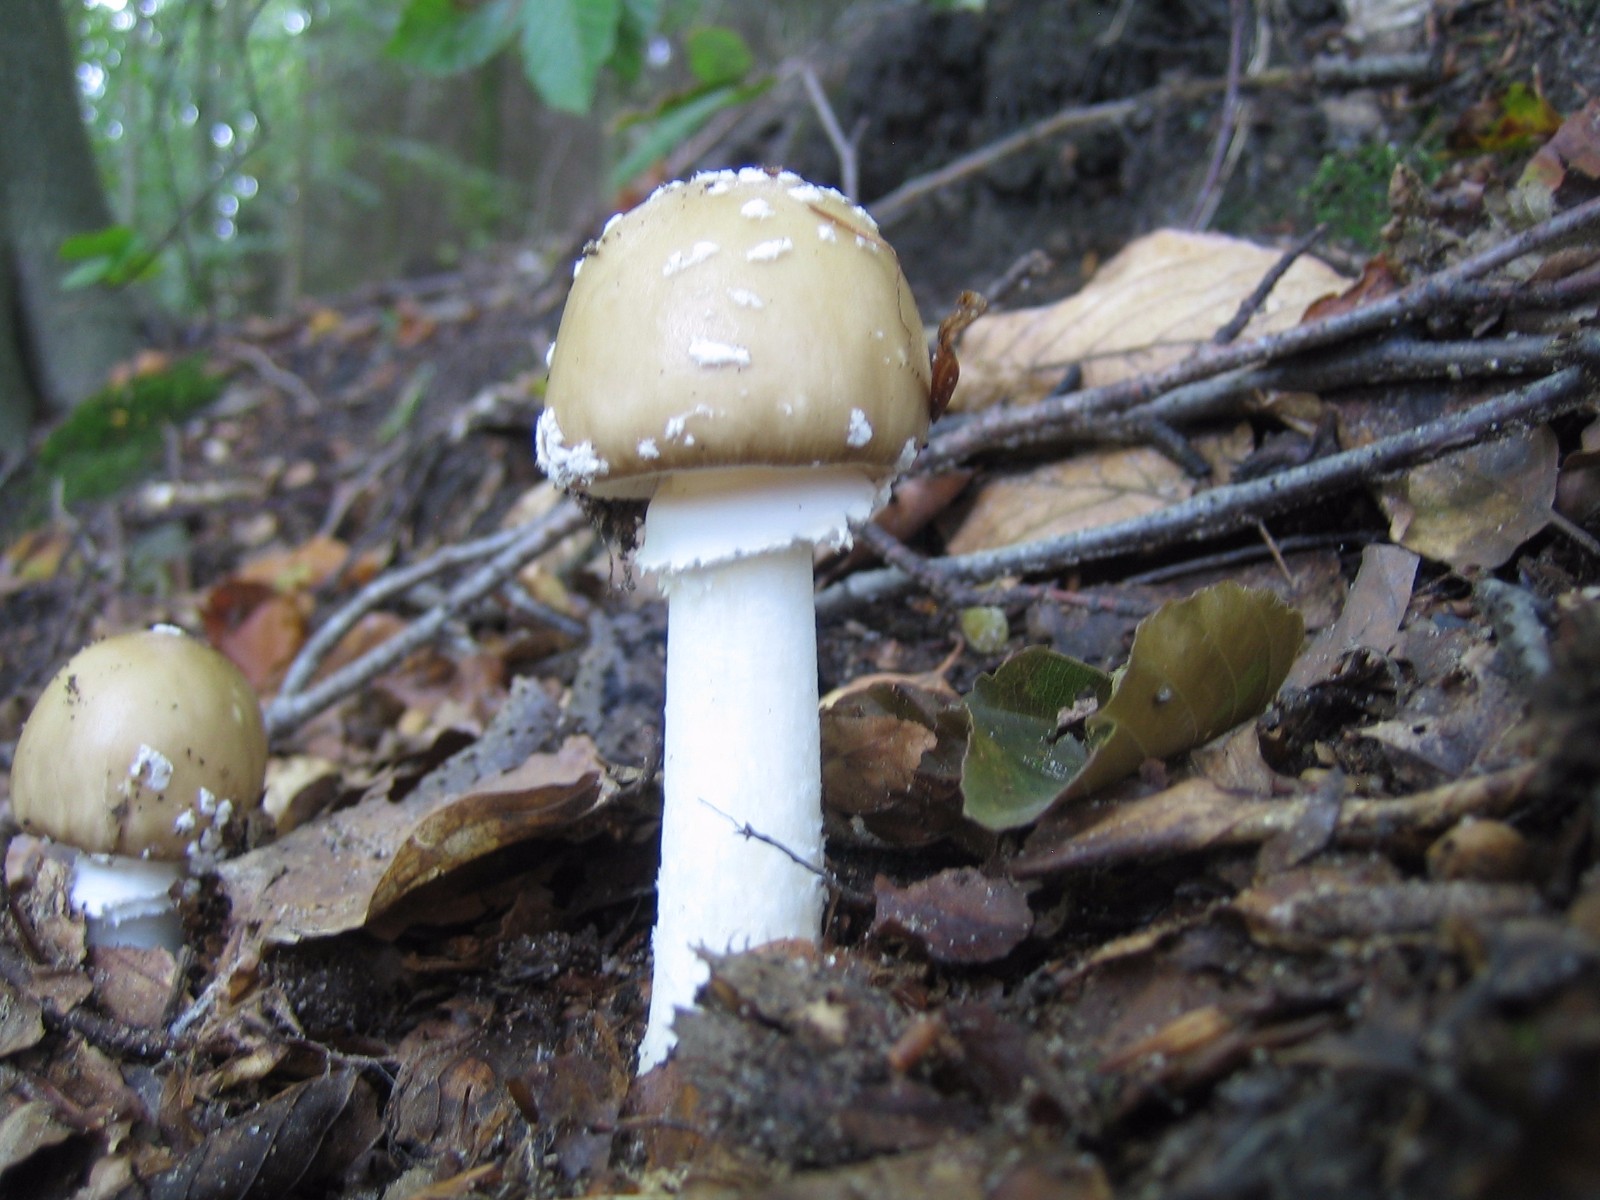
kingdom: Fungi
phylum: Basidiomycota
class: Agaricomycetes
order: Agaricales
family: Amanitaceae
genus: Amanita
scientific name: Amanita pantherina
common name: panter-fluesvamp
